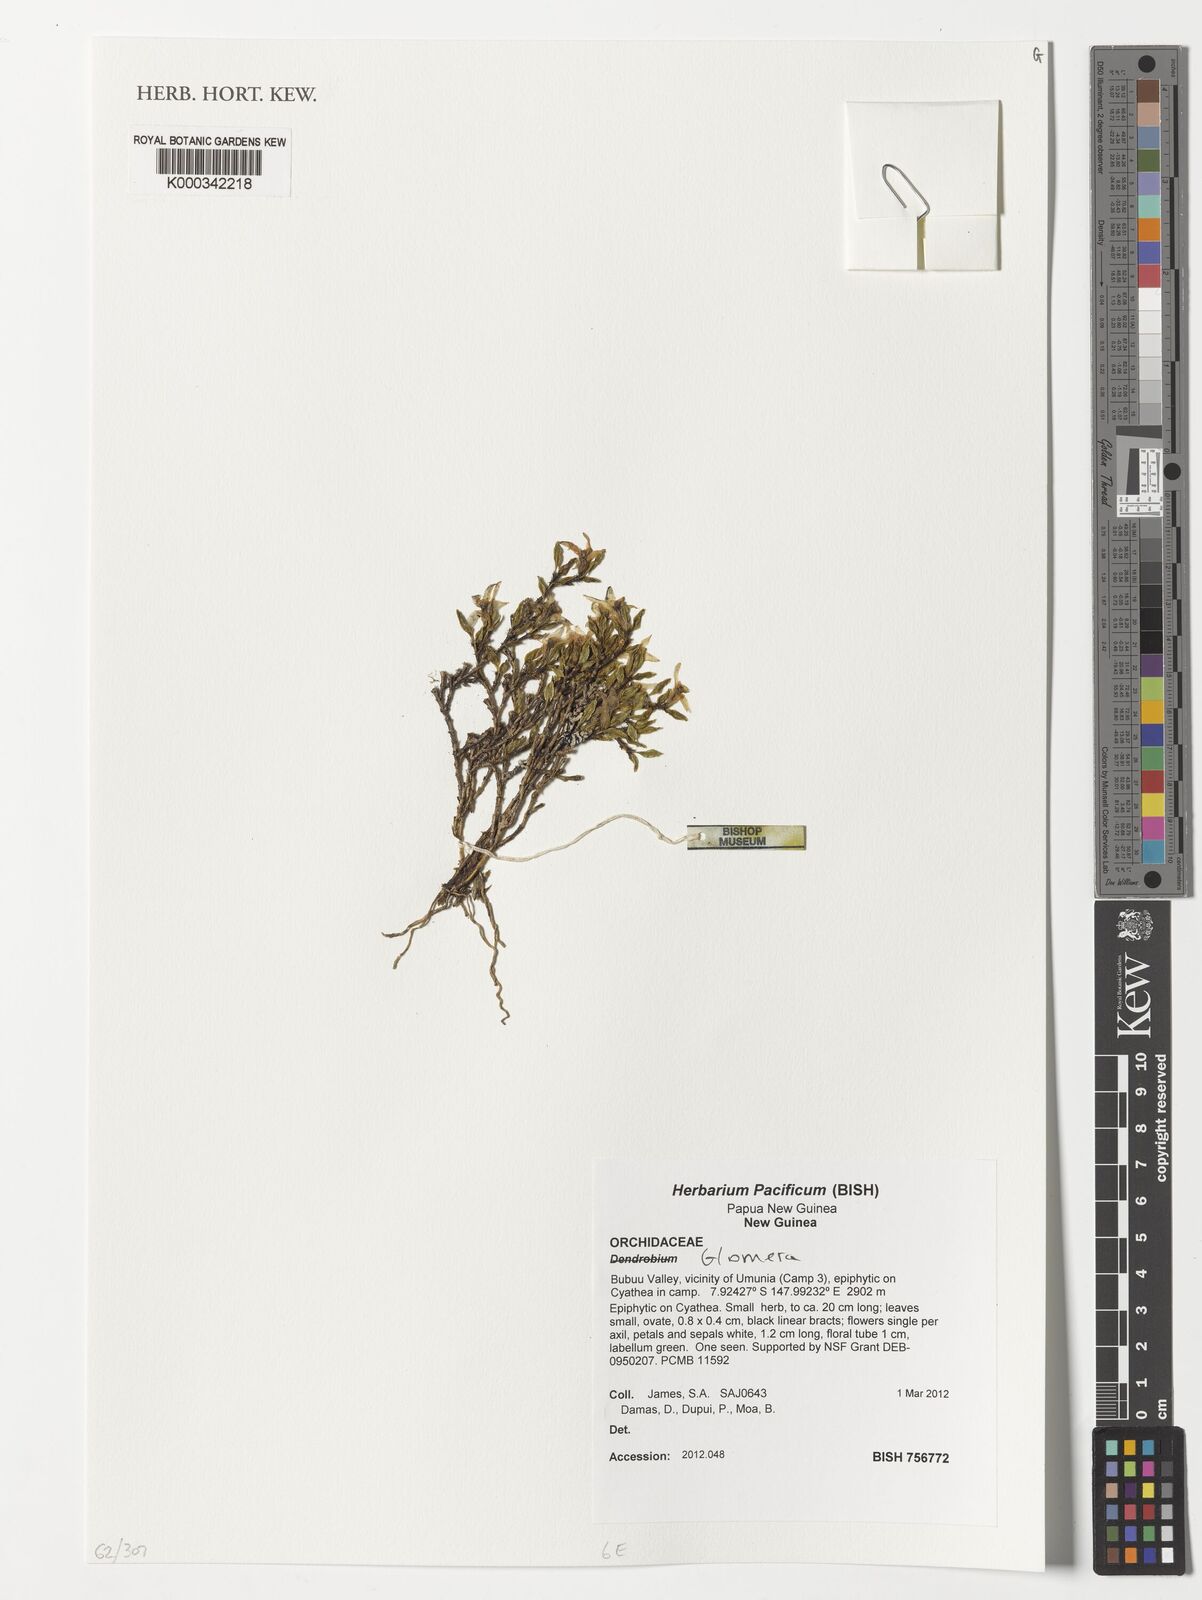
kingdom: Plantae
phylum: Tracheophyta
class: Liliopsida
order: Asparagales
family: Orchidaceae
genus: Glomera
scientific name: Glomera
